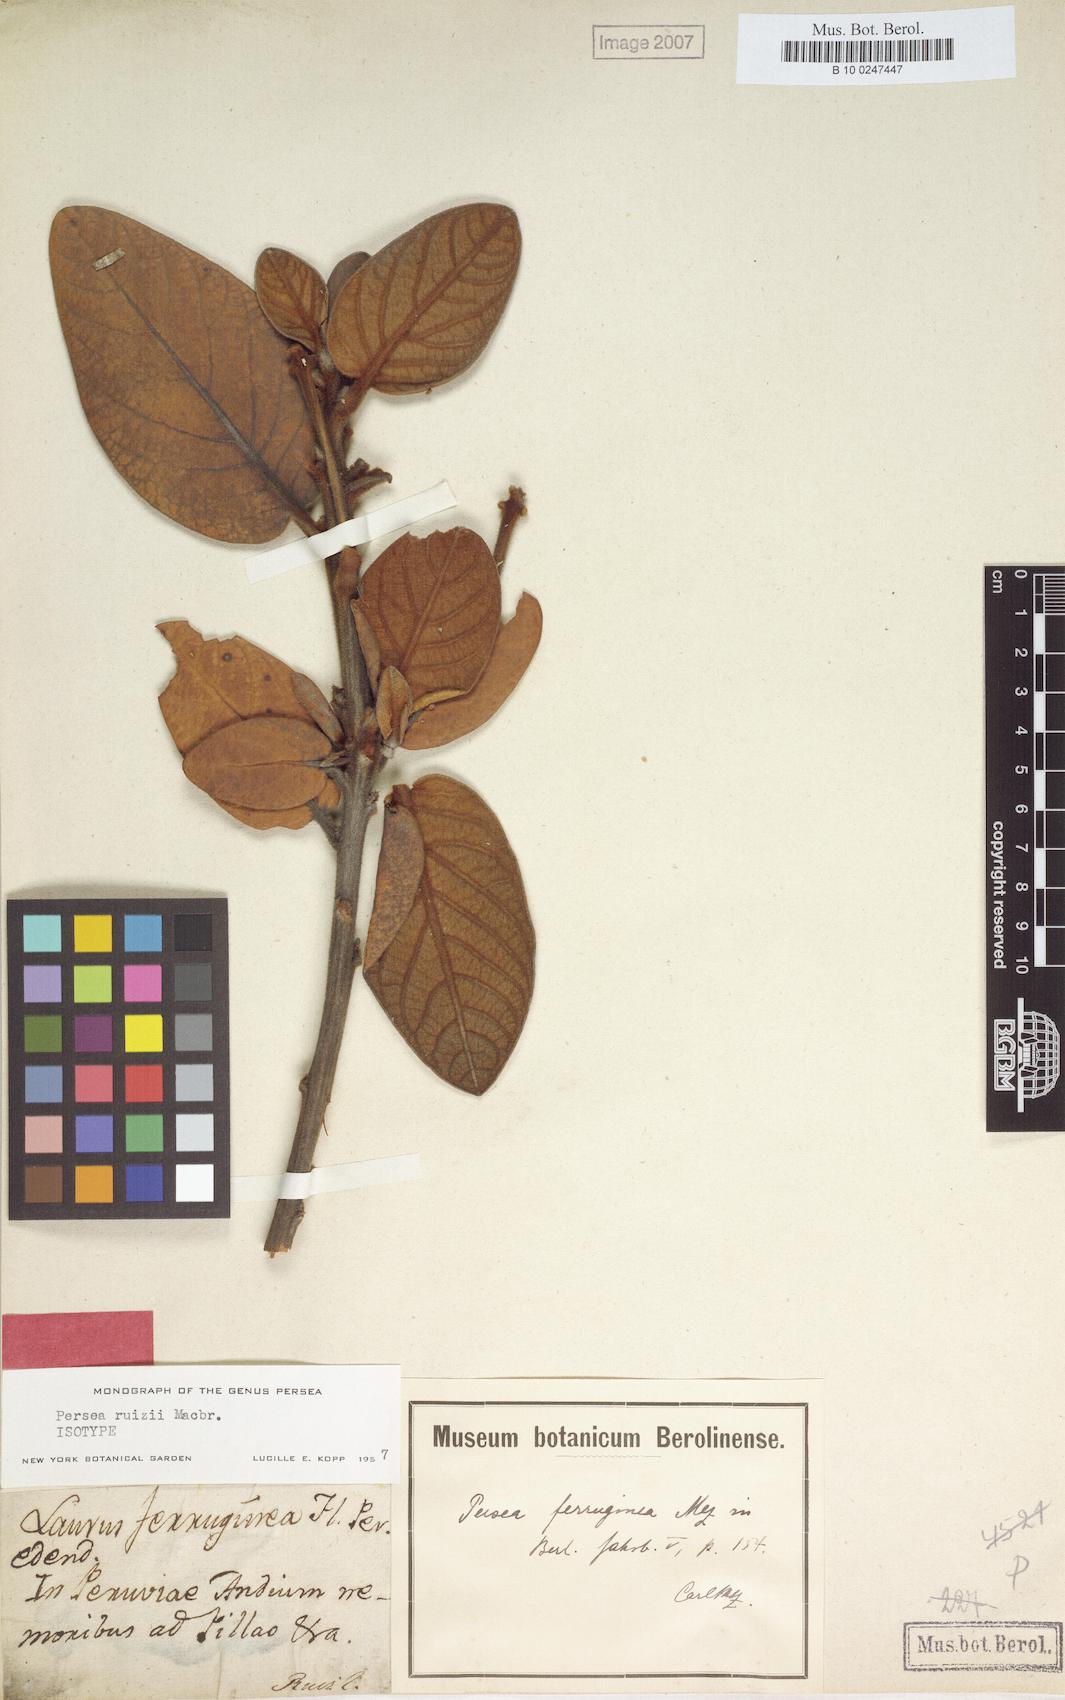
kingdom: Plantae
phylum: Tracheophyta
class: Magnoliopsida
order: Laurales
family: Lauraceae
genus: Persea
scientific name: Persea ruizii
